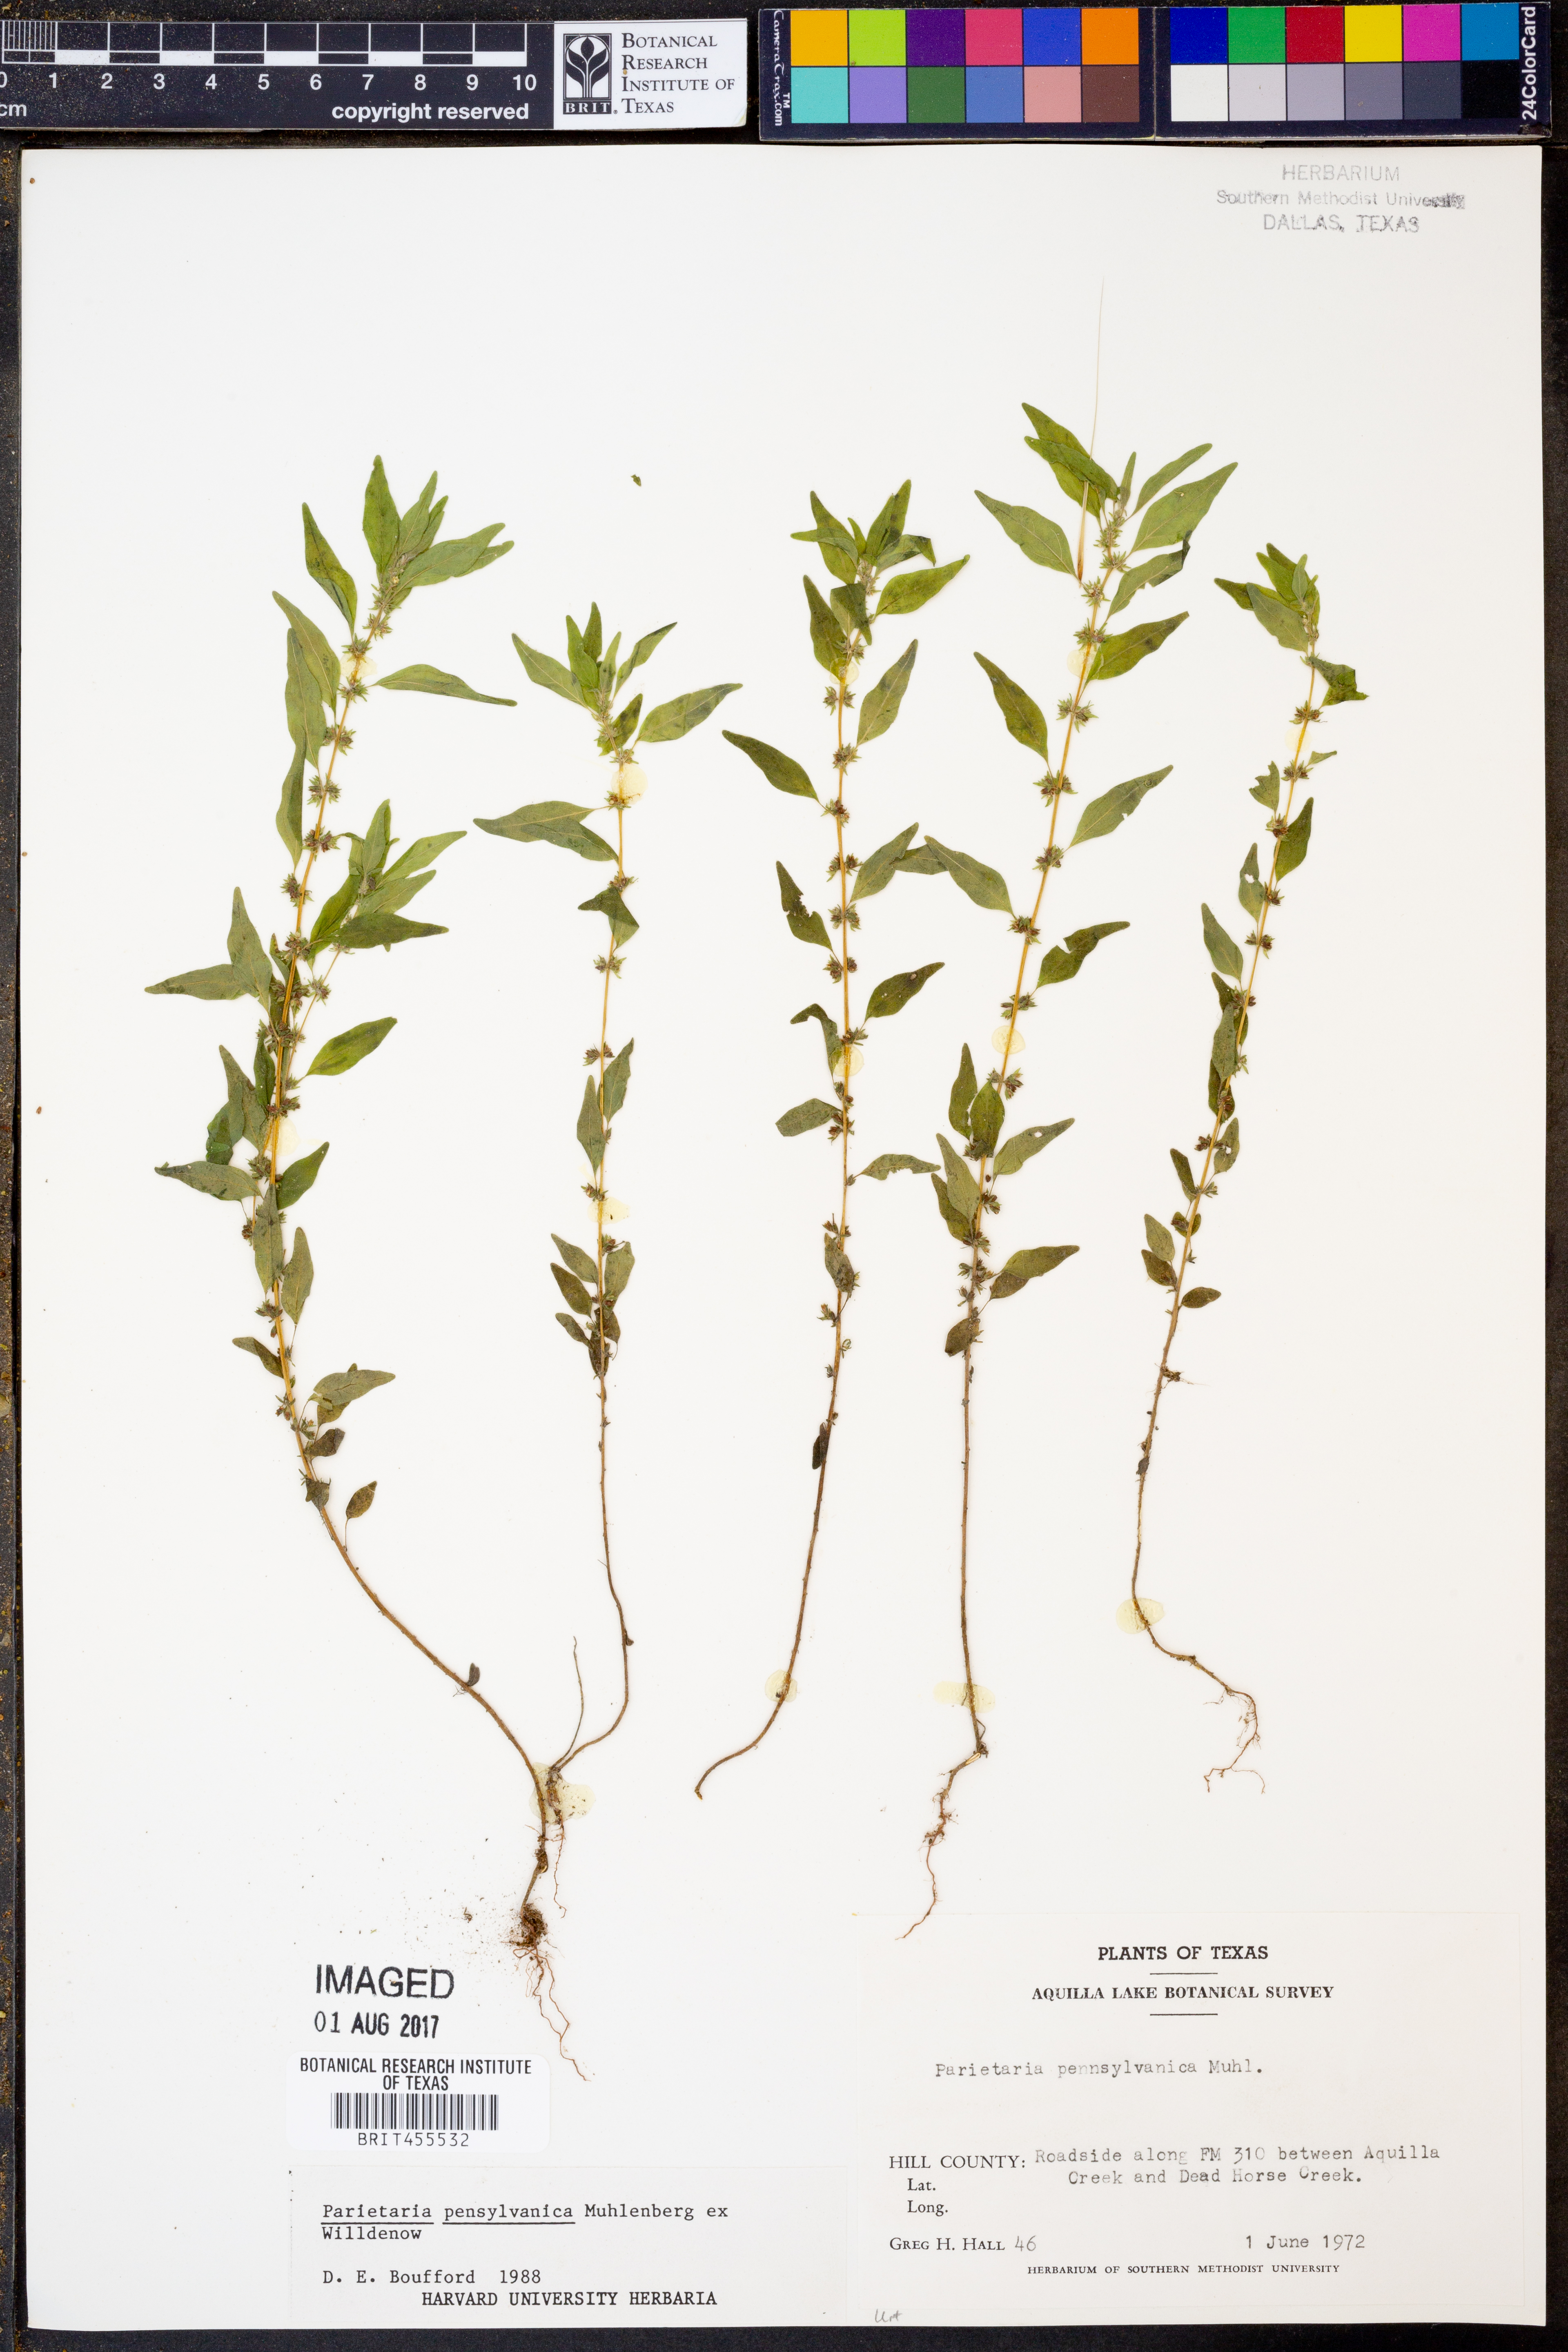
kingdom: Plantae
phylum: Tracheophyta
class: Magnoliopsida
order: Rosales
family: Urticaceae
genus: Parietaria
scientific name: Parietaria pensylvanica
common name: Pennsylvania pellitory
